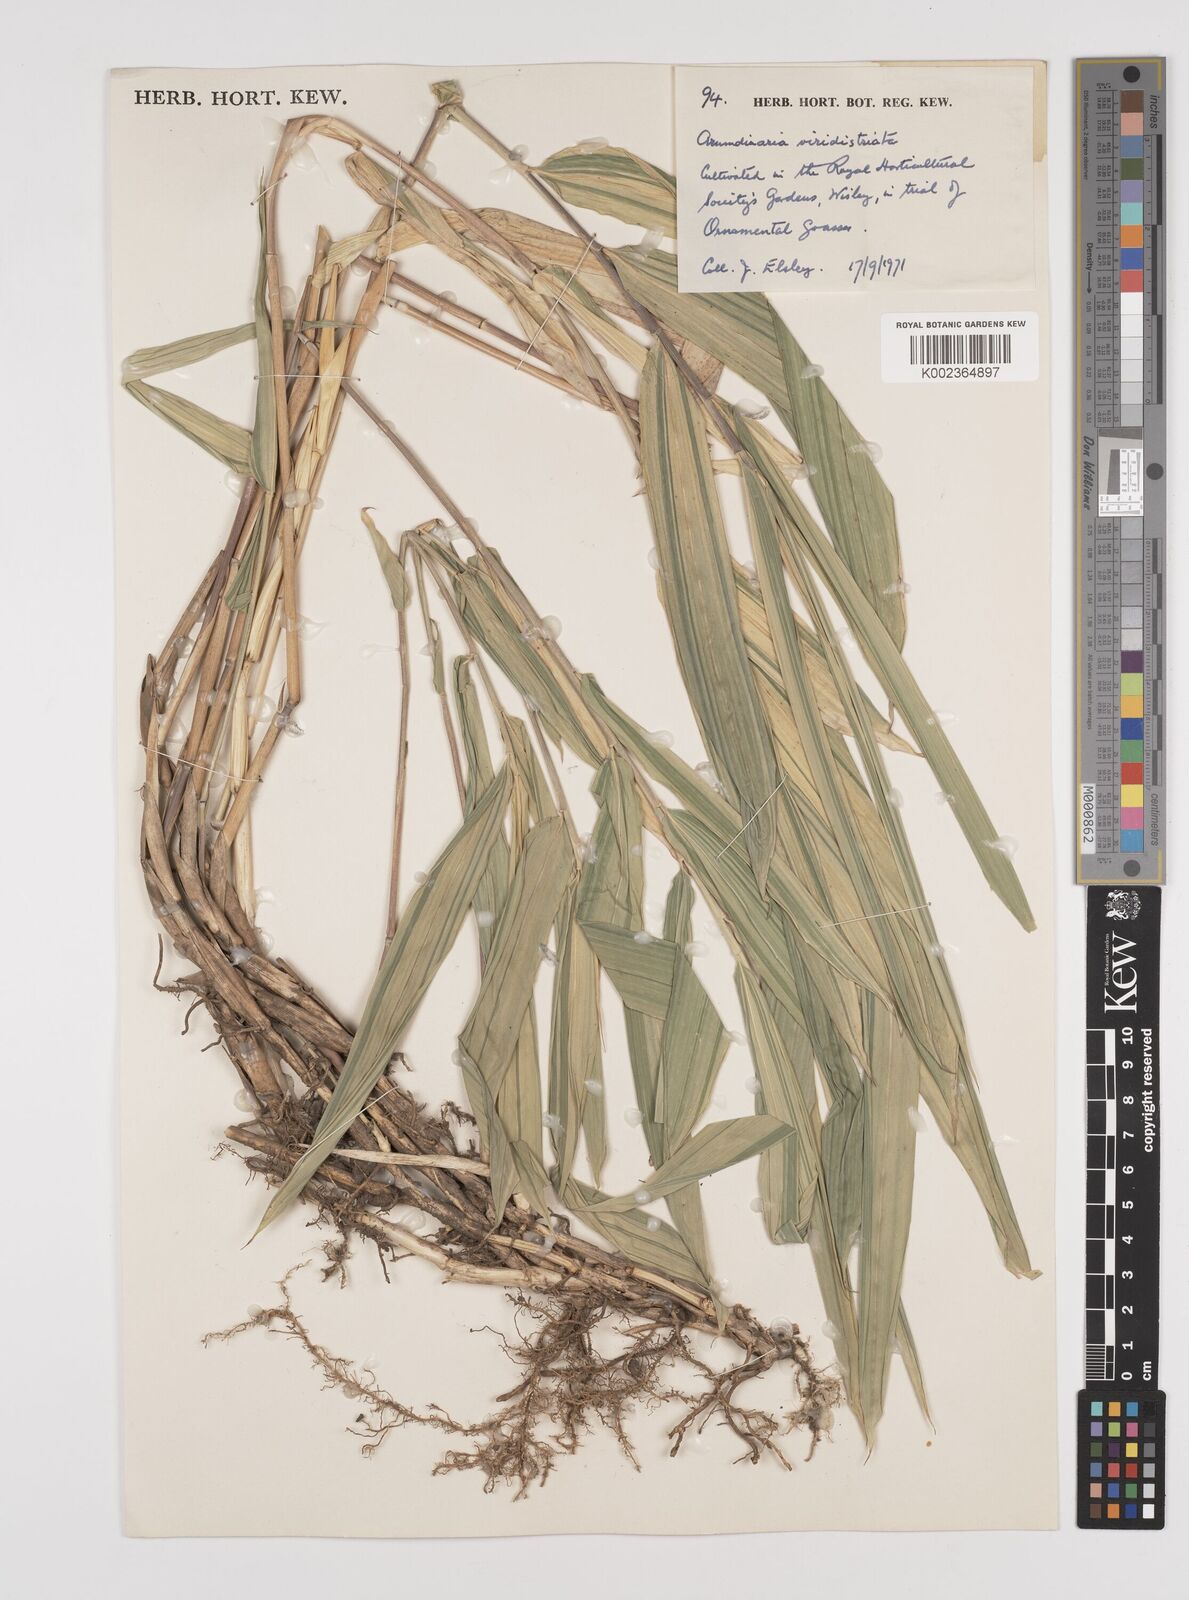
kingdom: Plantae
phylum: Tracheophyta
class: Liliopsida
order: Poales
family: Poaceae
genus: Pleioblastus
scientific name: Pleioblastus viridistriatus
